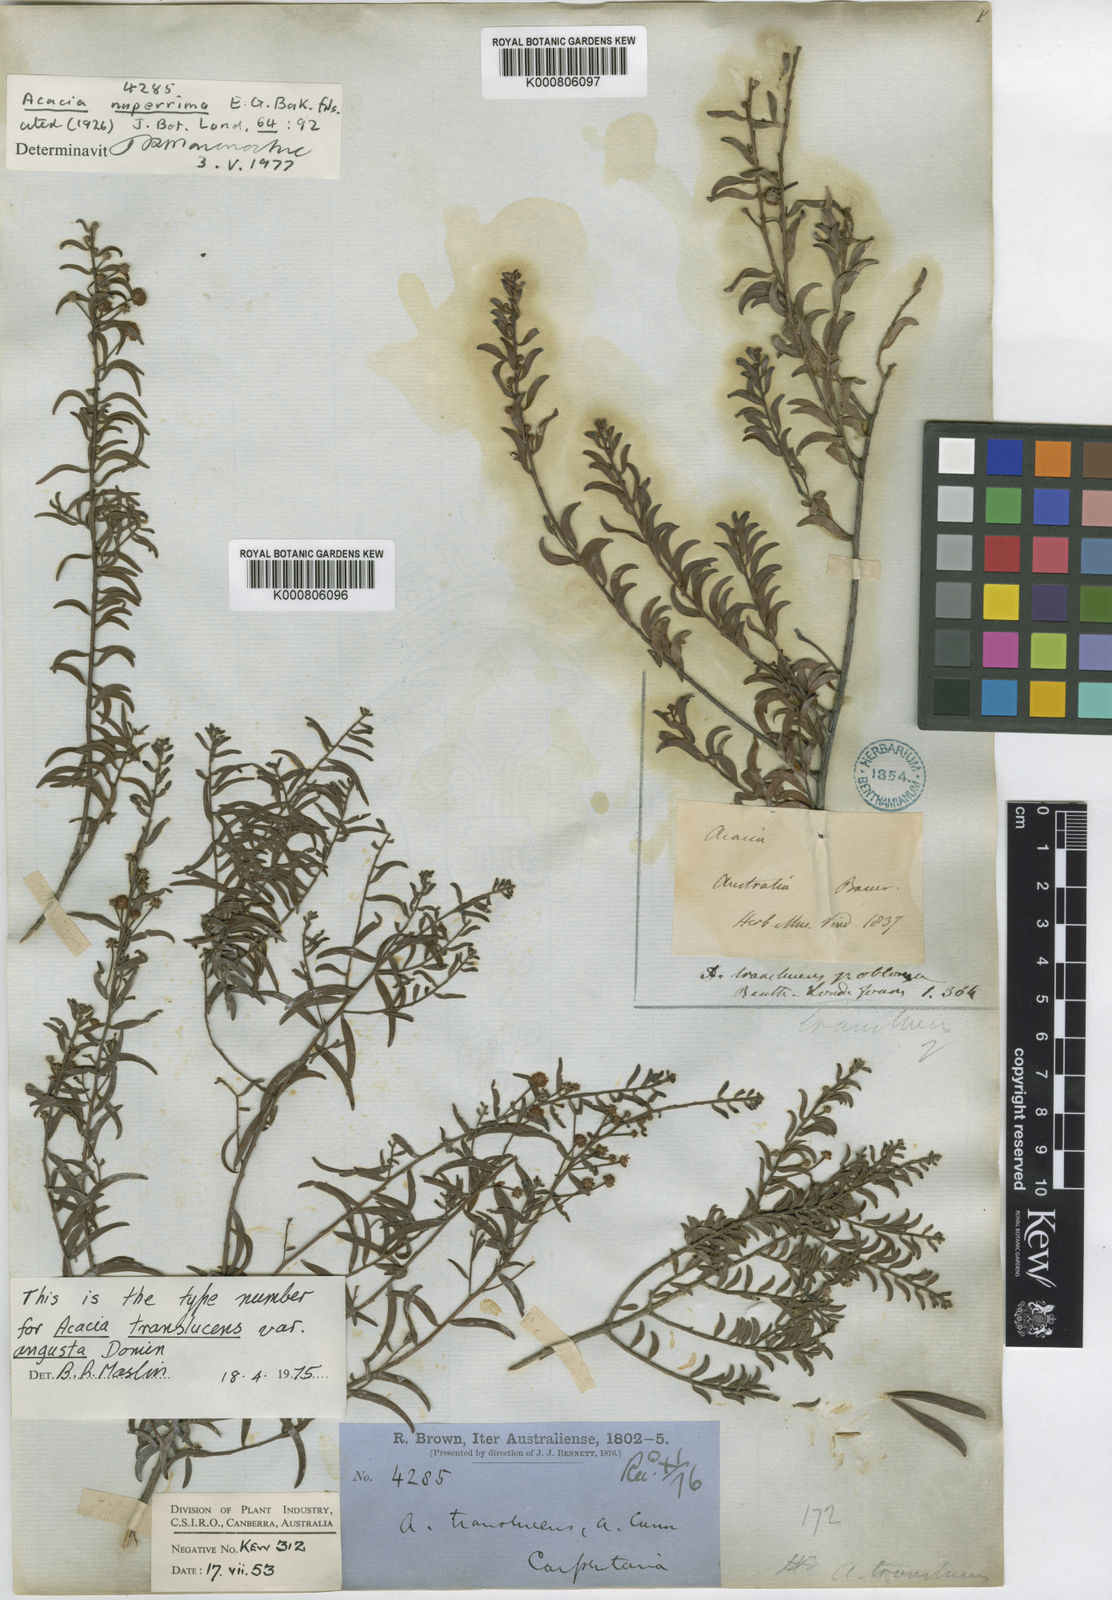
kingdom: Plantae
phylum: Tracheophyta
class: Magnoliopsida
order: Fabales
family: Fabaceae
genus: Acacia
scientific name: Acacia translucens
